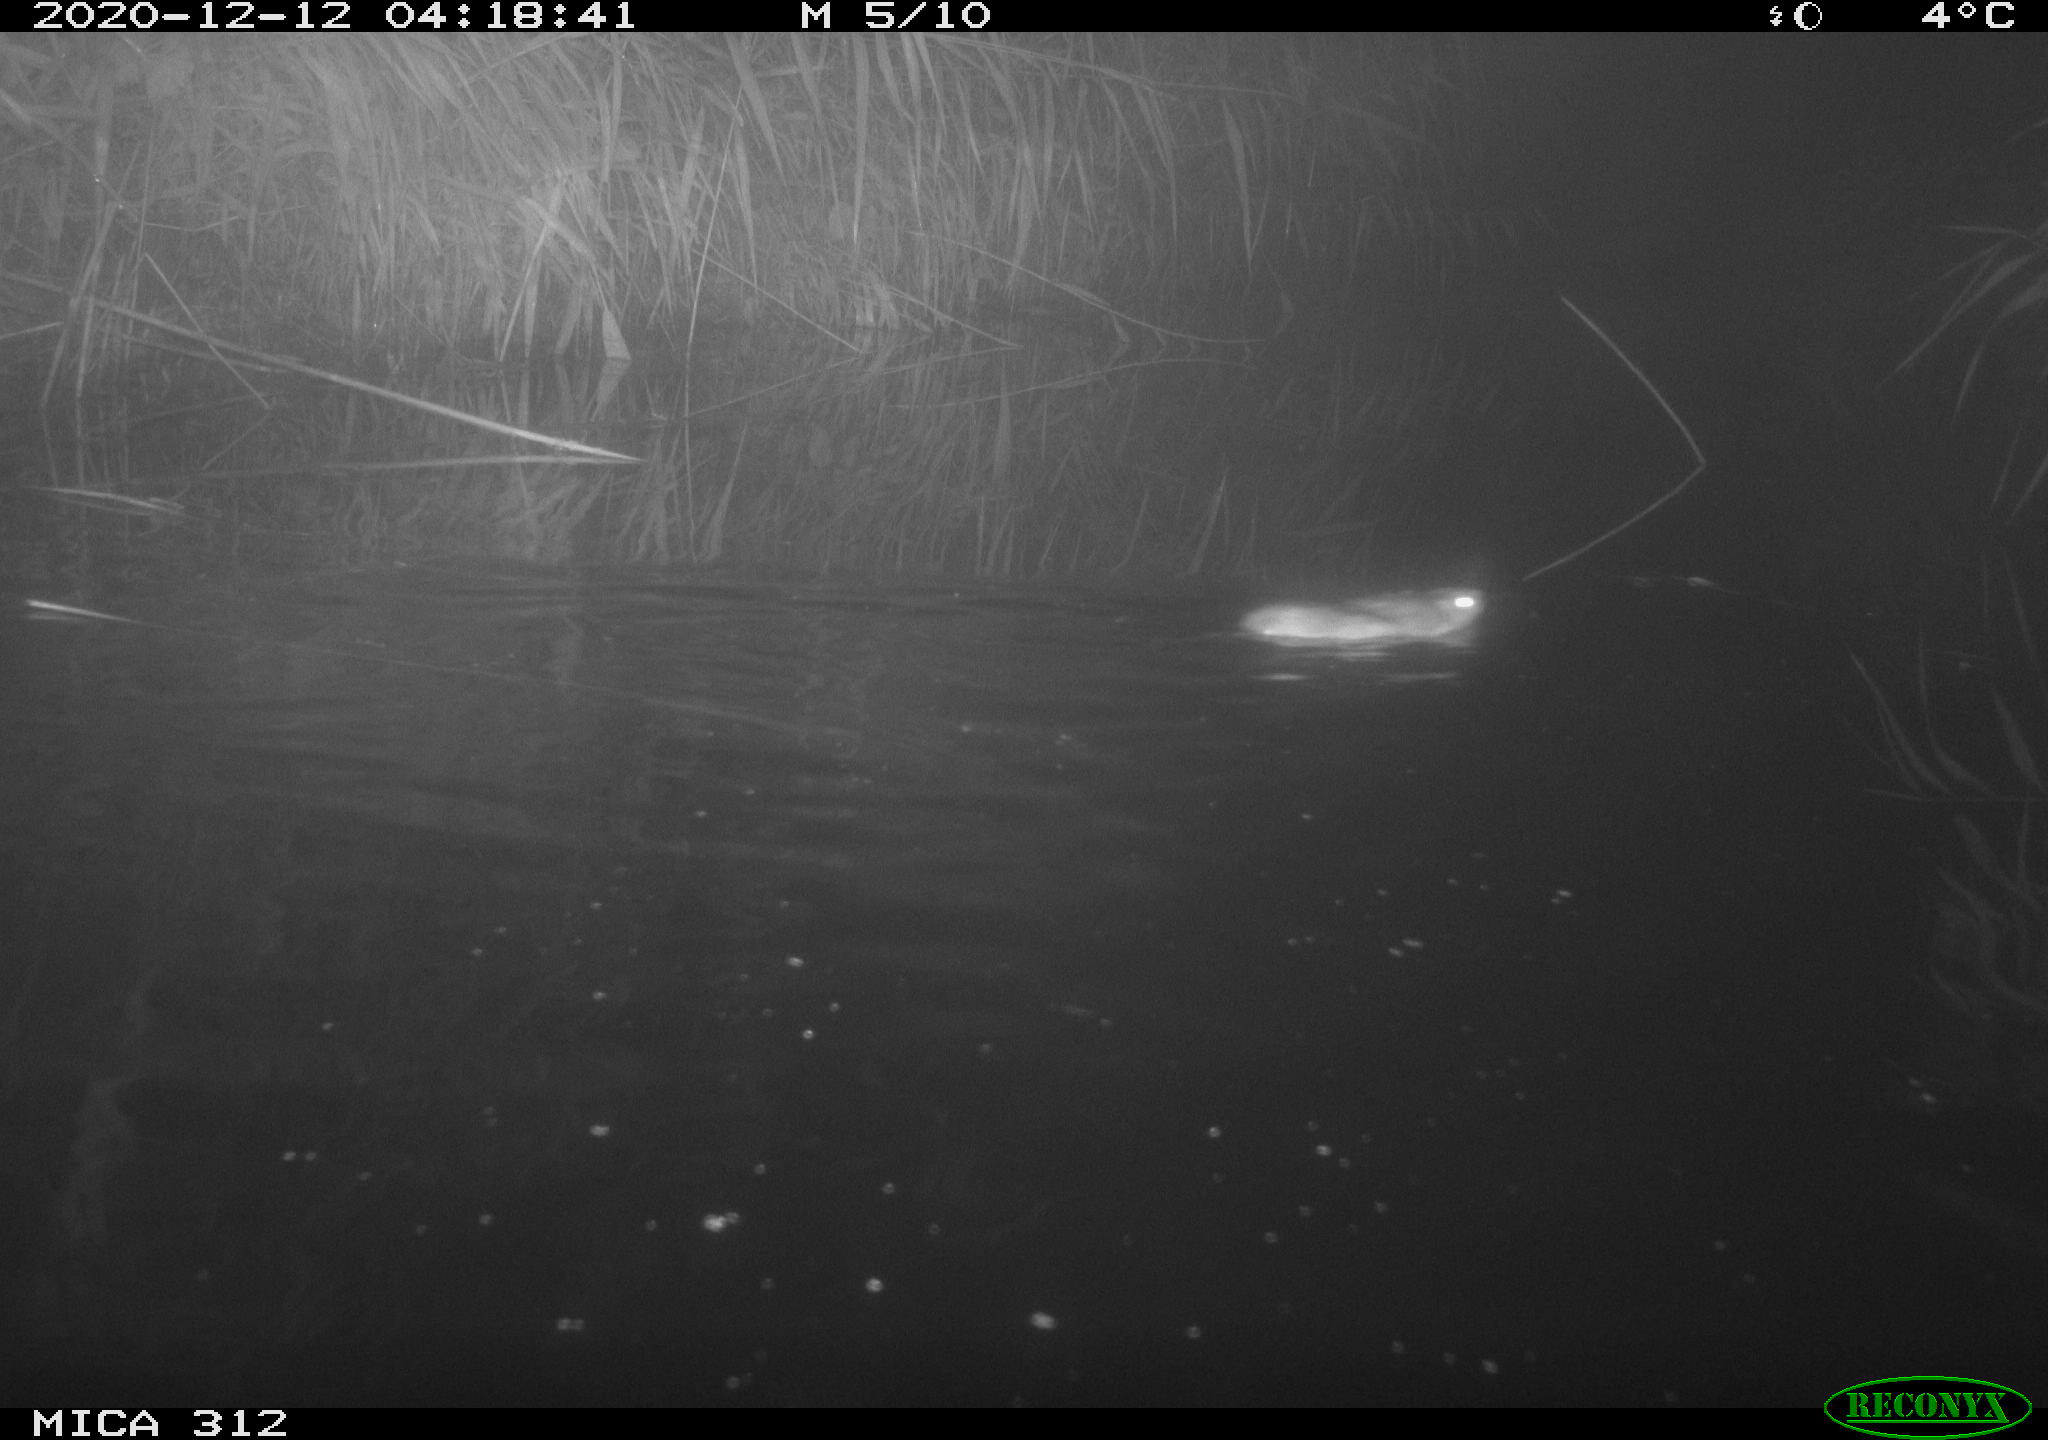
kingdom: Animalia
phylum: Chordata
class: Mammalia
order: Rodentia
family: Muridae
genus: Rattus
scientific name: Rattus norvegicus
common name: Brown rat
